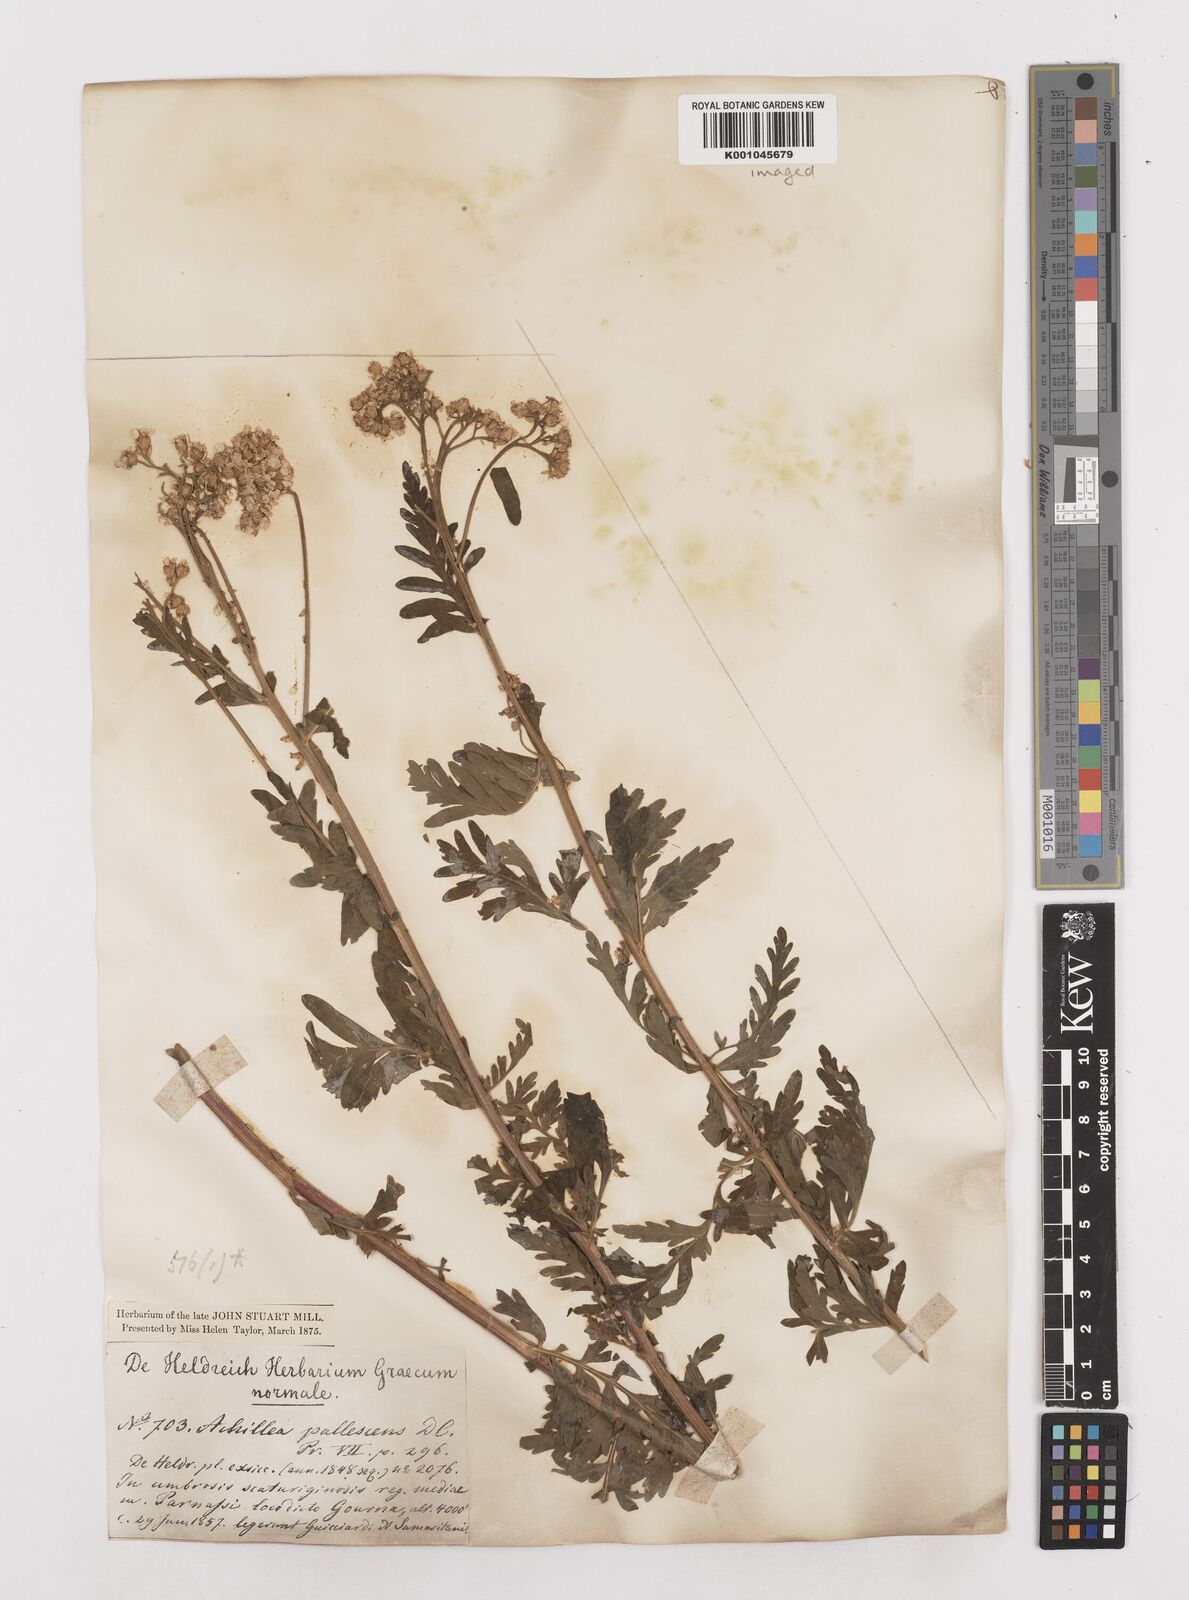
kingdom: Plantae
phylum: Tracheophyta
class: Magnoliopsida
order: Asterales
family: Asteraceae
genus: Achillea
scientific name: Achillea ptarmicifolia
